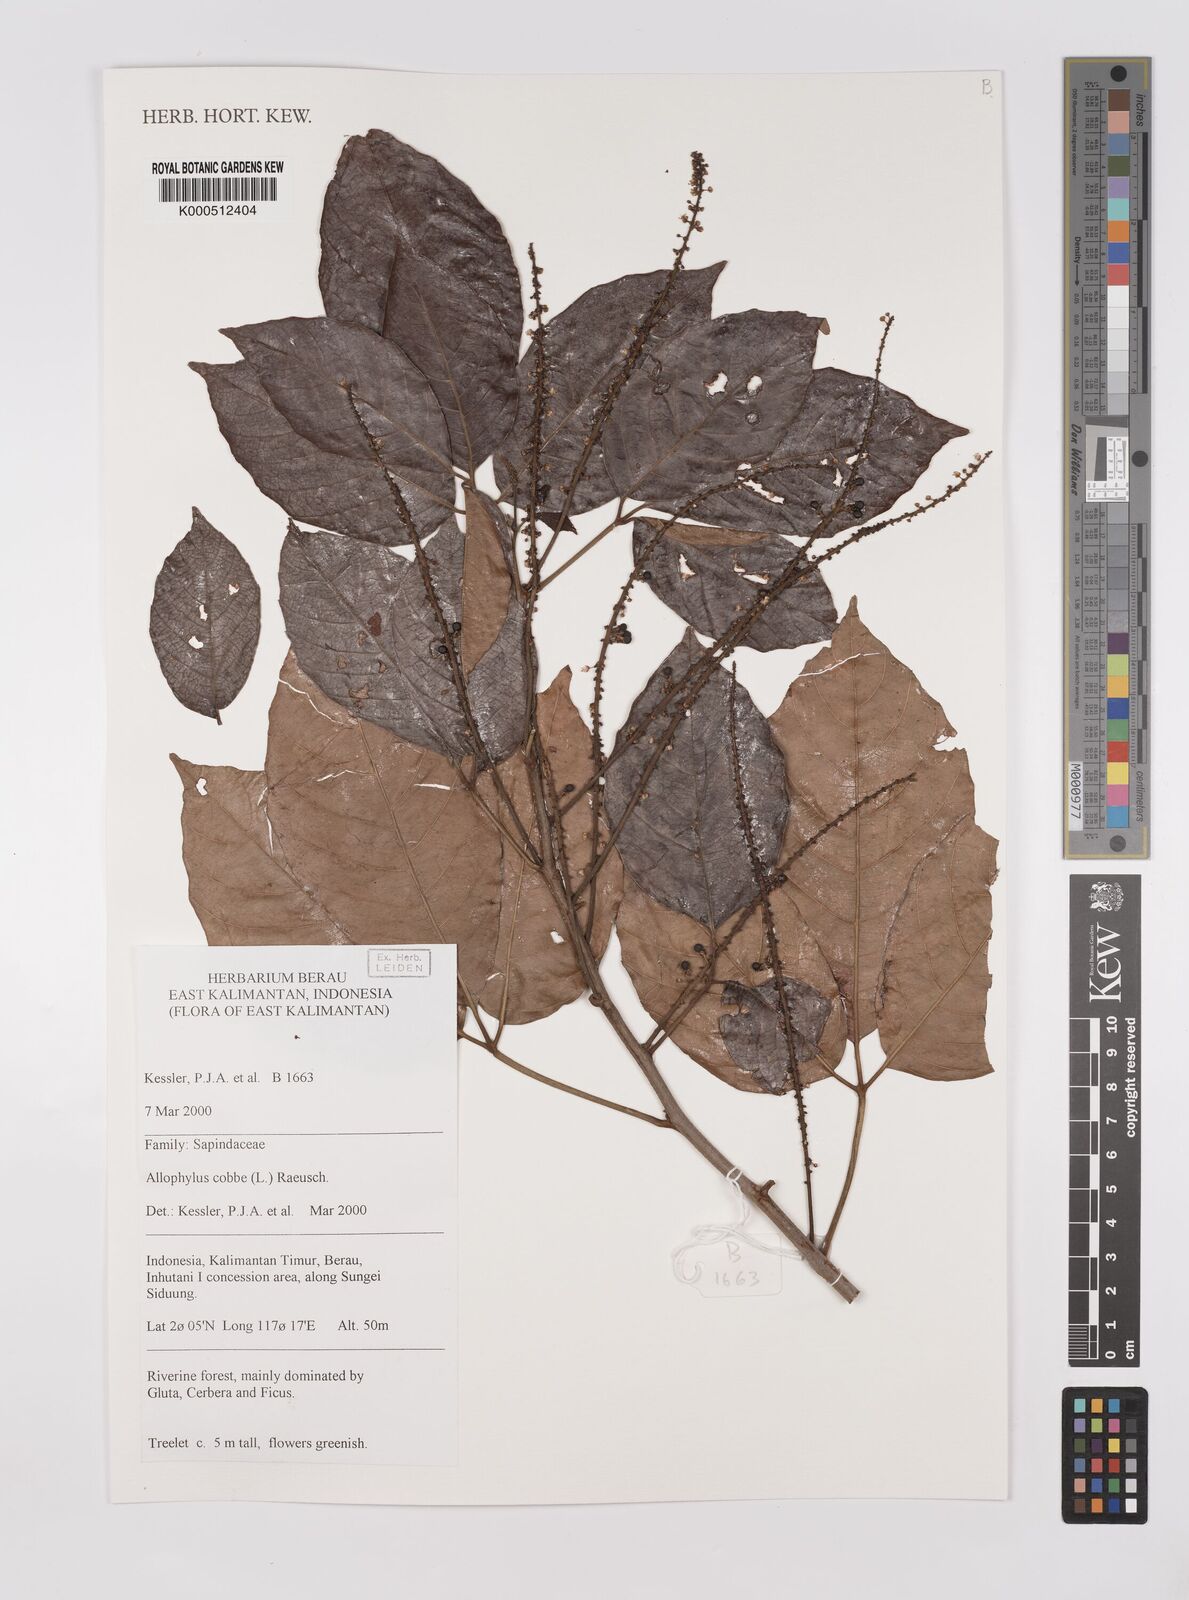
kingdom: Plantae
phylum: Tracheophyta
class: Magnoliopsida
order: Sapindales
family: Sapindaceae
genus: Allophylus
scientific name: Allophylus
